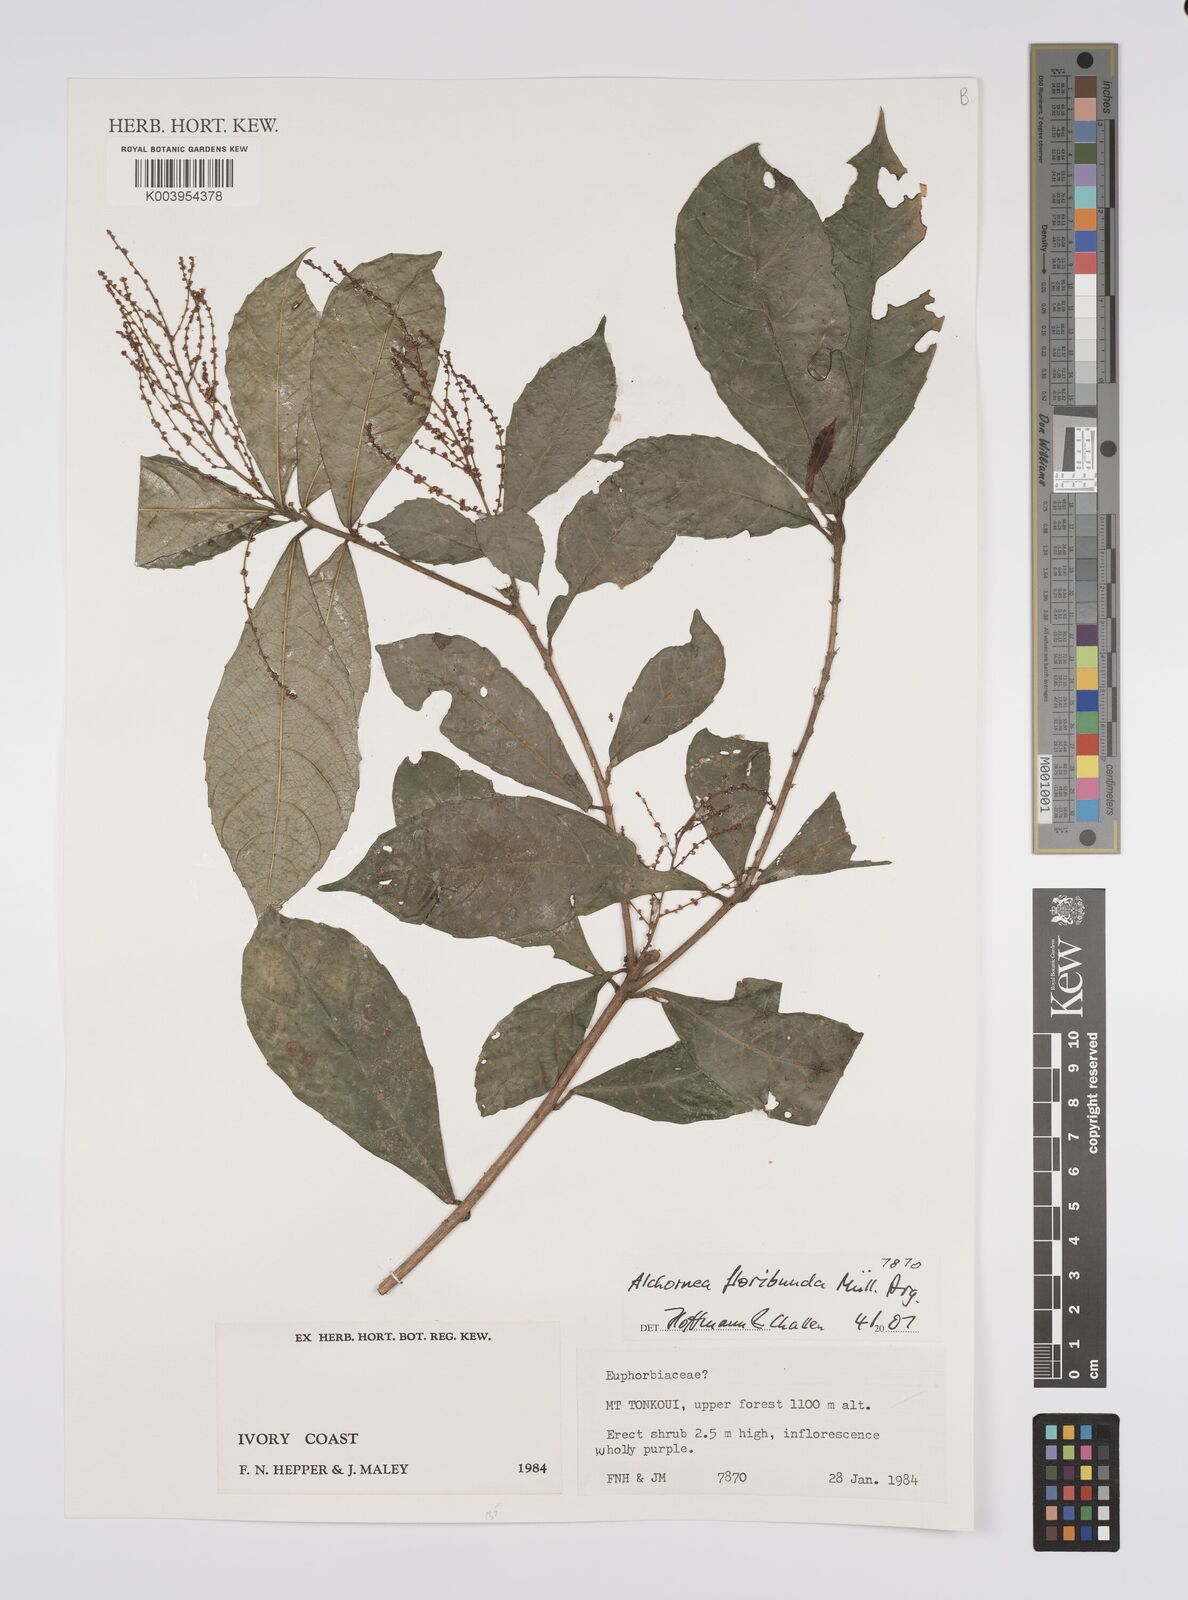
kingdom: Plantae
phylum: Tracheophyta
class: Magnoliopsida
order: Malpighiales
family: Euphorbiaceae
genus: Alchornea
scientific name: Alchornea floribunda
